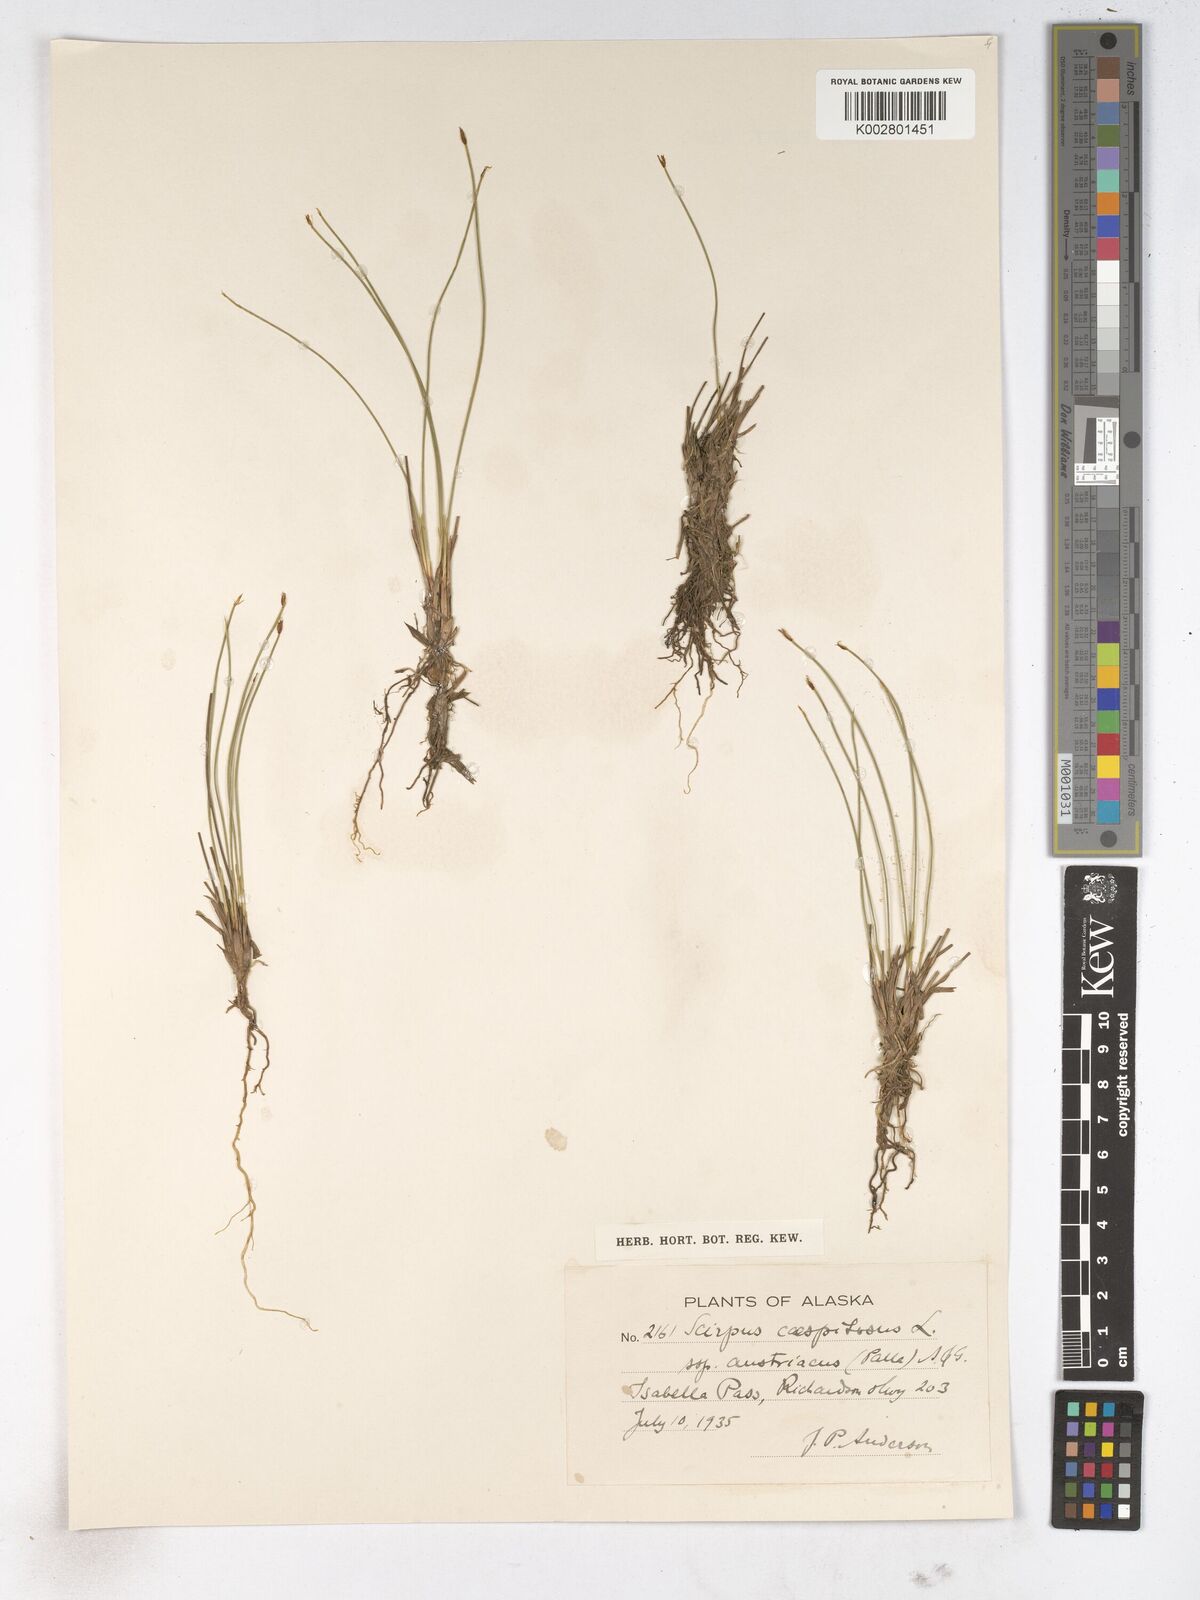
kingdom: Plantae
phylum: Tracheophyta
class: Liliopsida
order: Poales
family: Cyperaceae
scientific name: Cyperaceae
